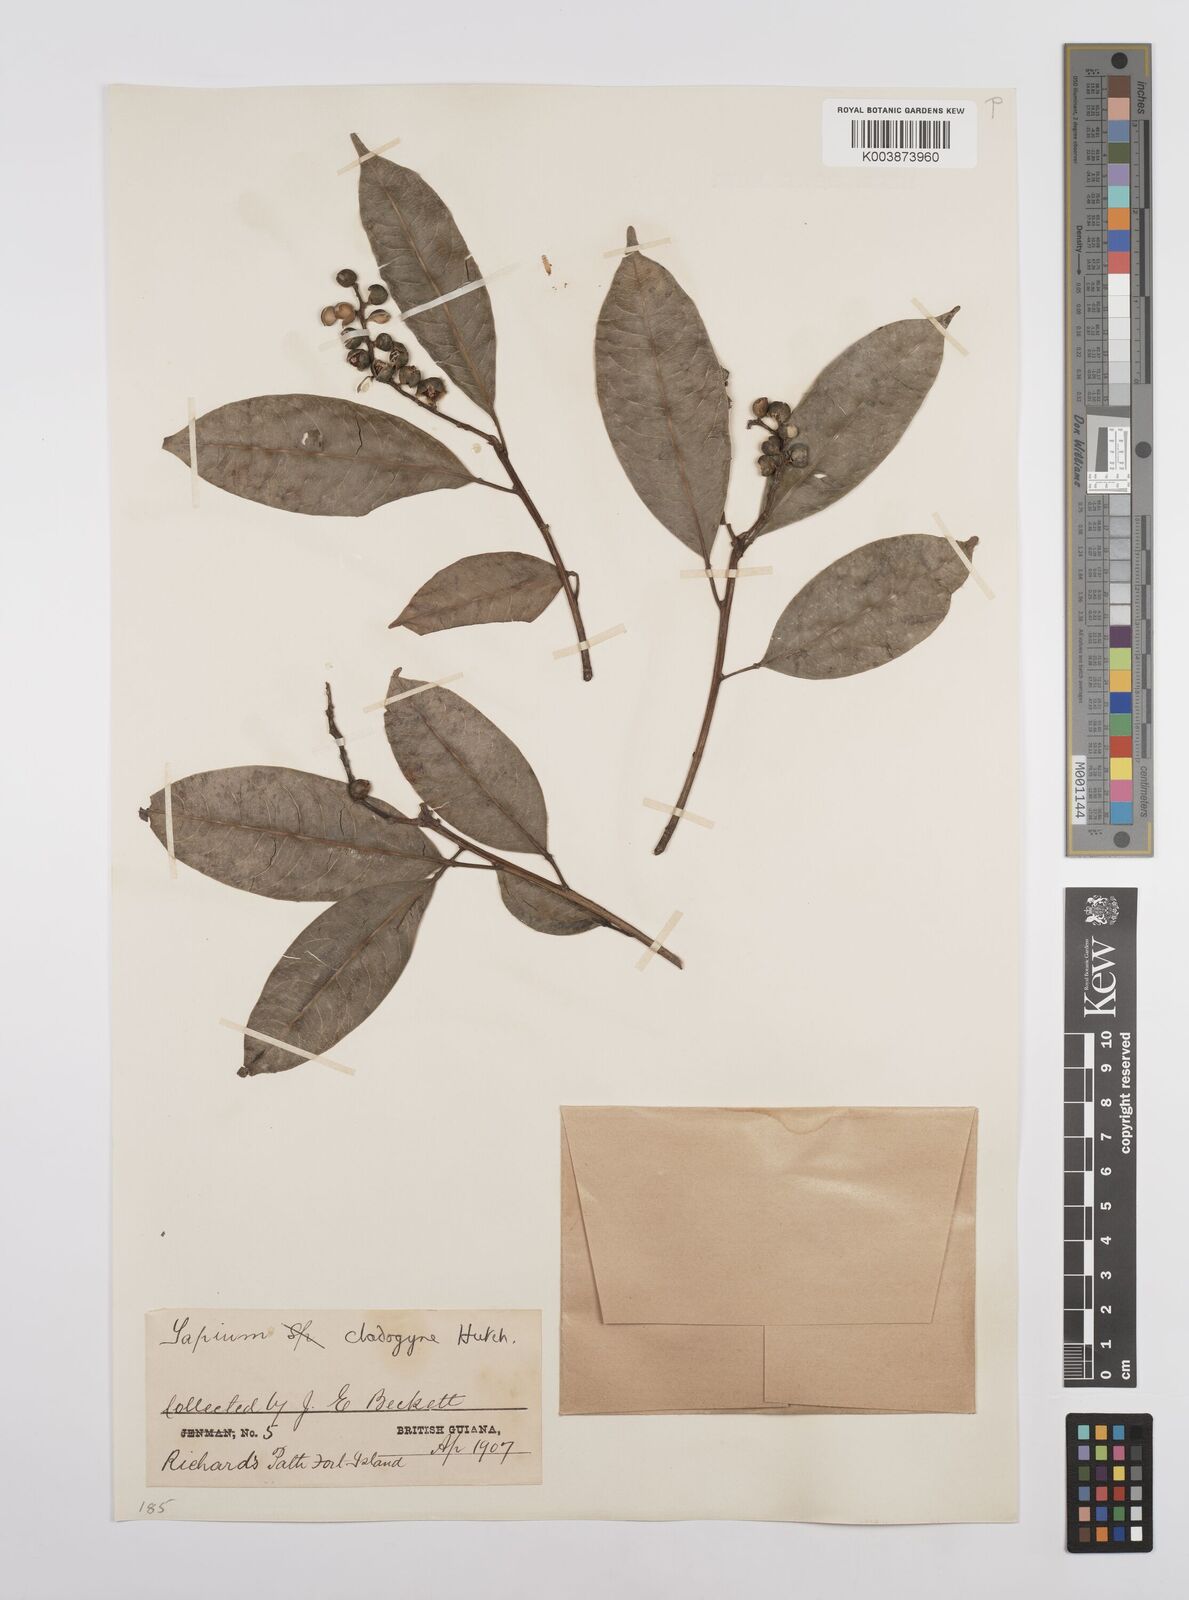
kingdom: Plantae
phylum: Tracheophyta
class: Magnoliopsida
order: Malpighiales
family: Euphorbiaceae
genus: Sapium
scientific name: Sapium jenmannii
